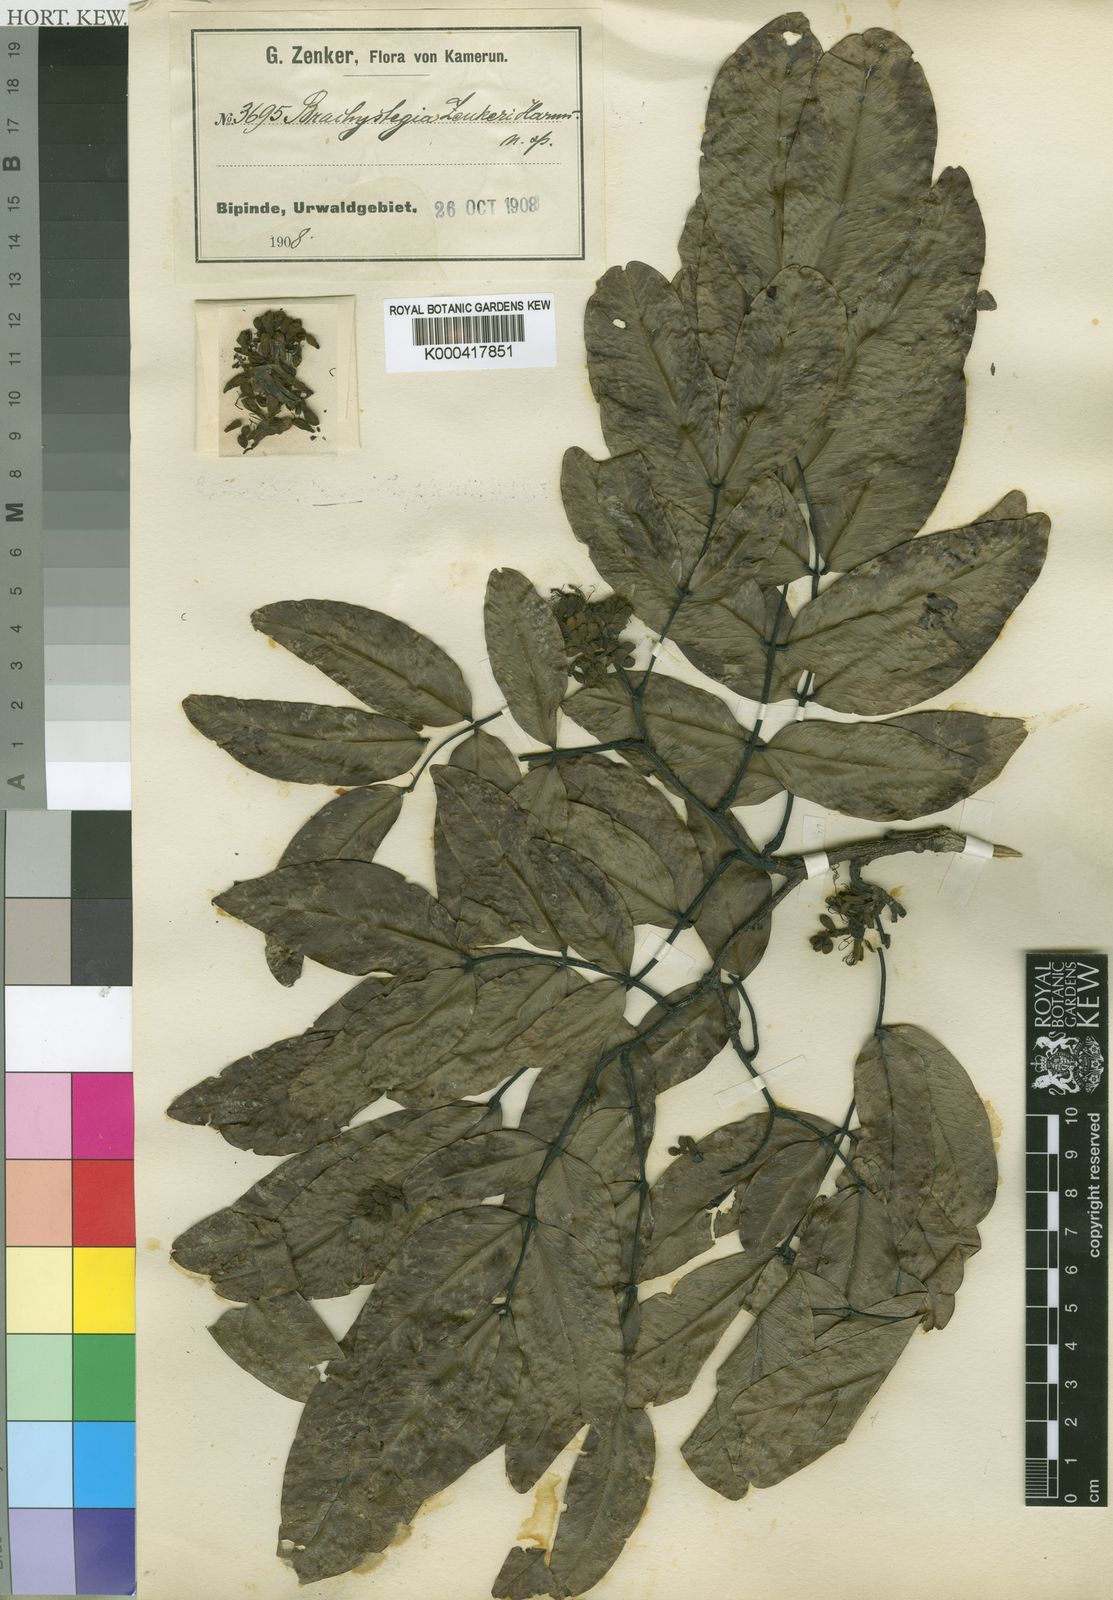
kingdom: Plantae
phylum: Tracheophyta
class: Magnoliopsida
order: Fabales
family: Fabaceae
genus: Brachystegia
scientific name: Brachystegia laurentii
